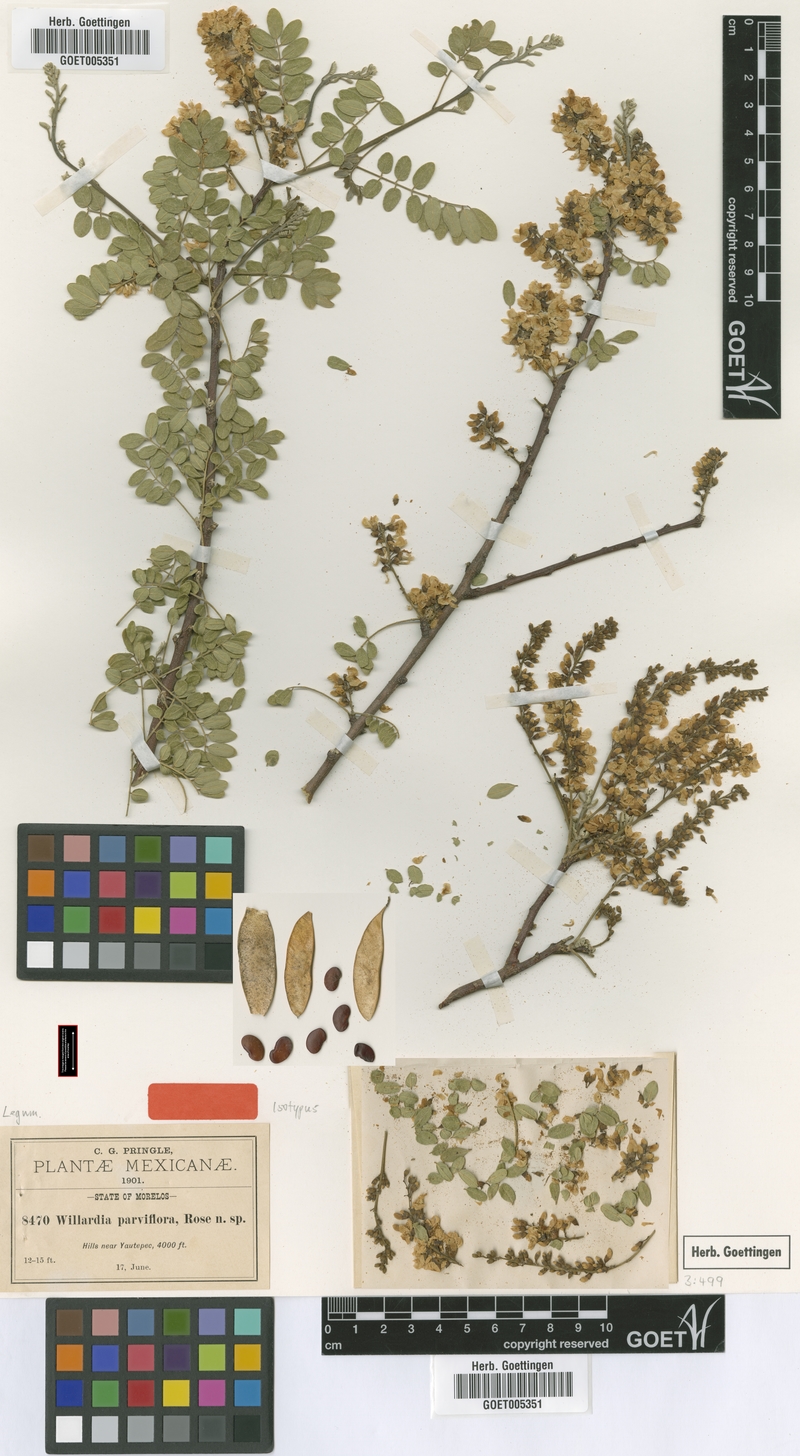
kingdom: Plantae
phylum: Tracheophyta
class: Magnoliopsida
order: Fabales
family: Fabaceae
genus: Lonchocarpus
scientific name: Lonchocarpus andrieuxii
